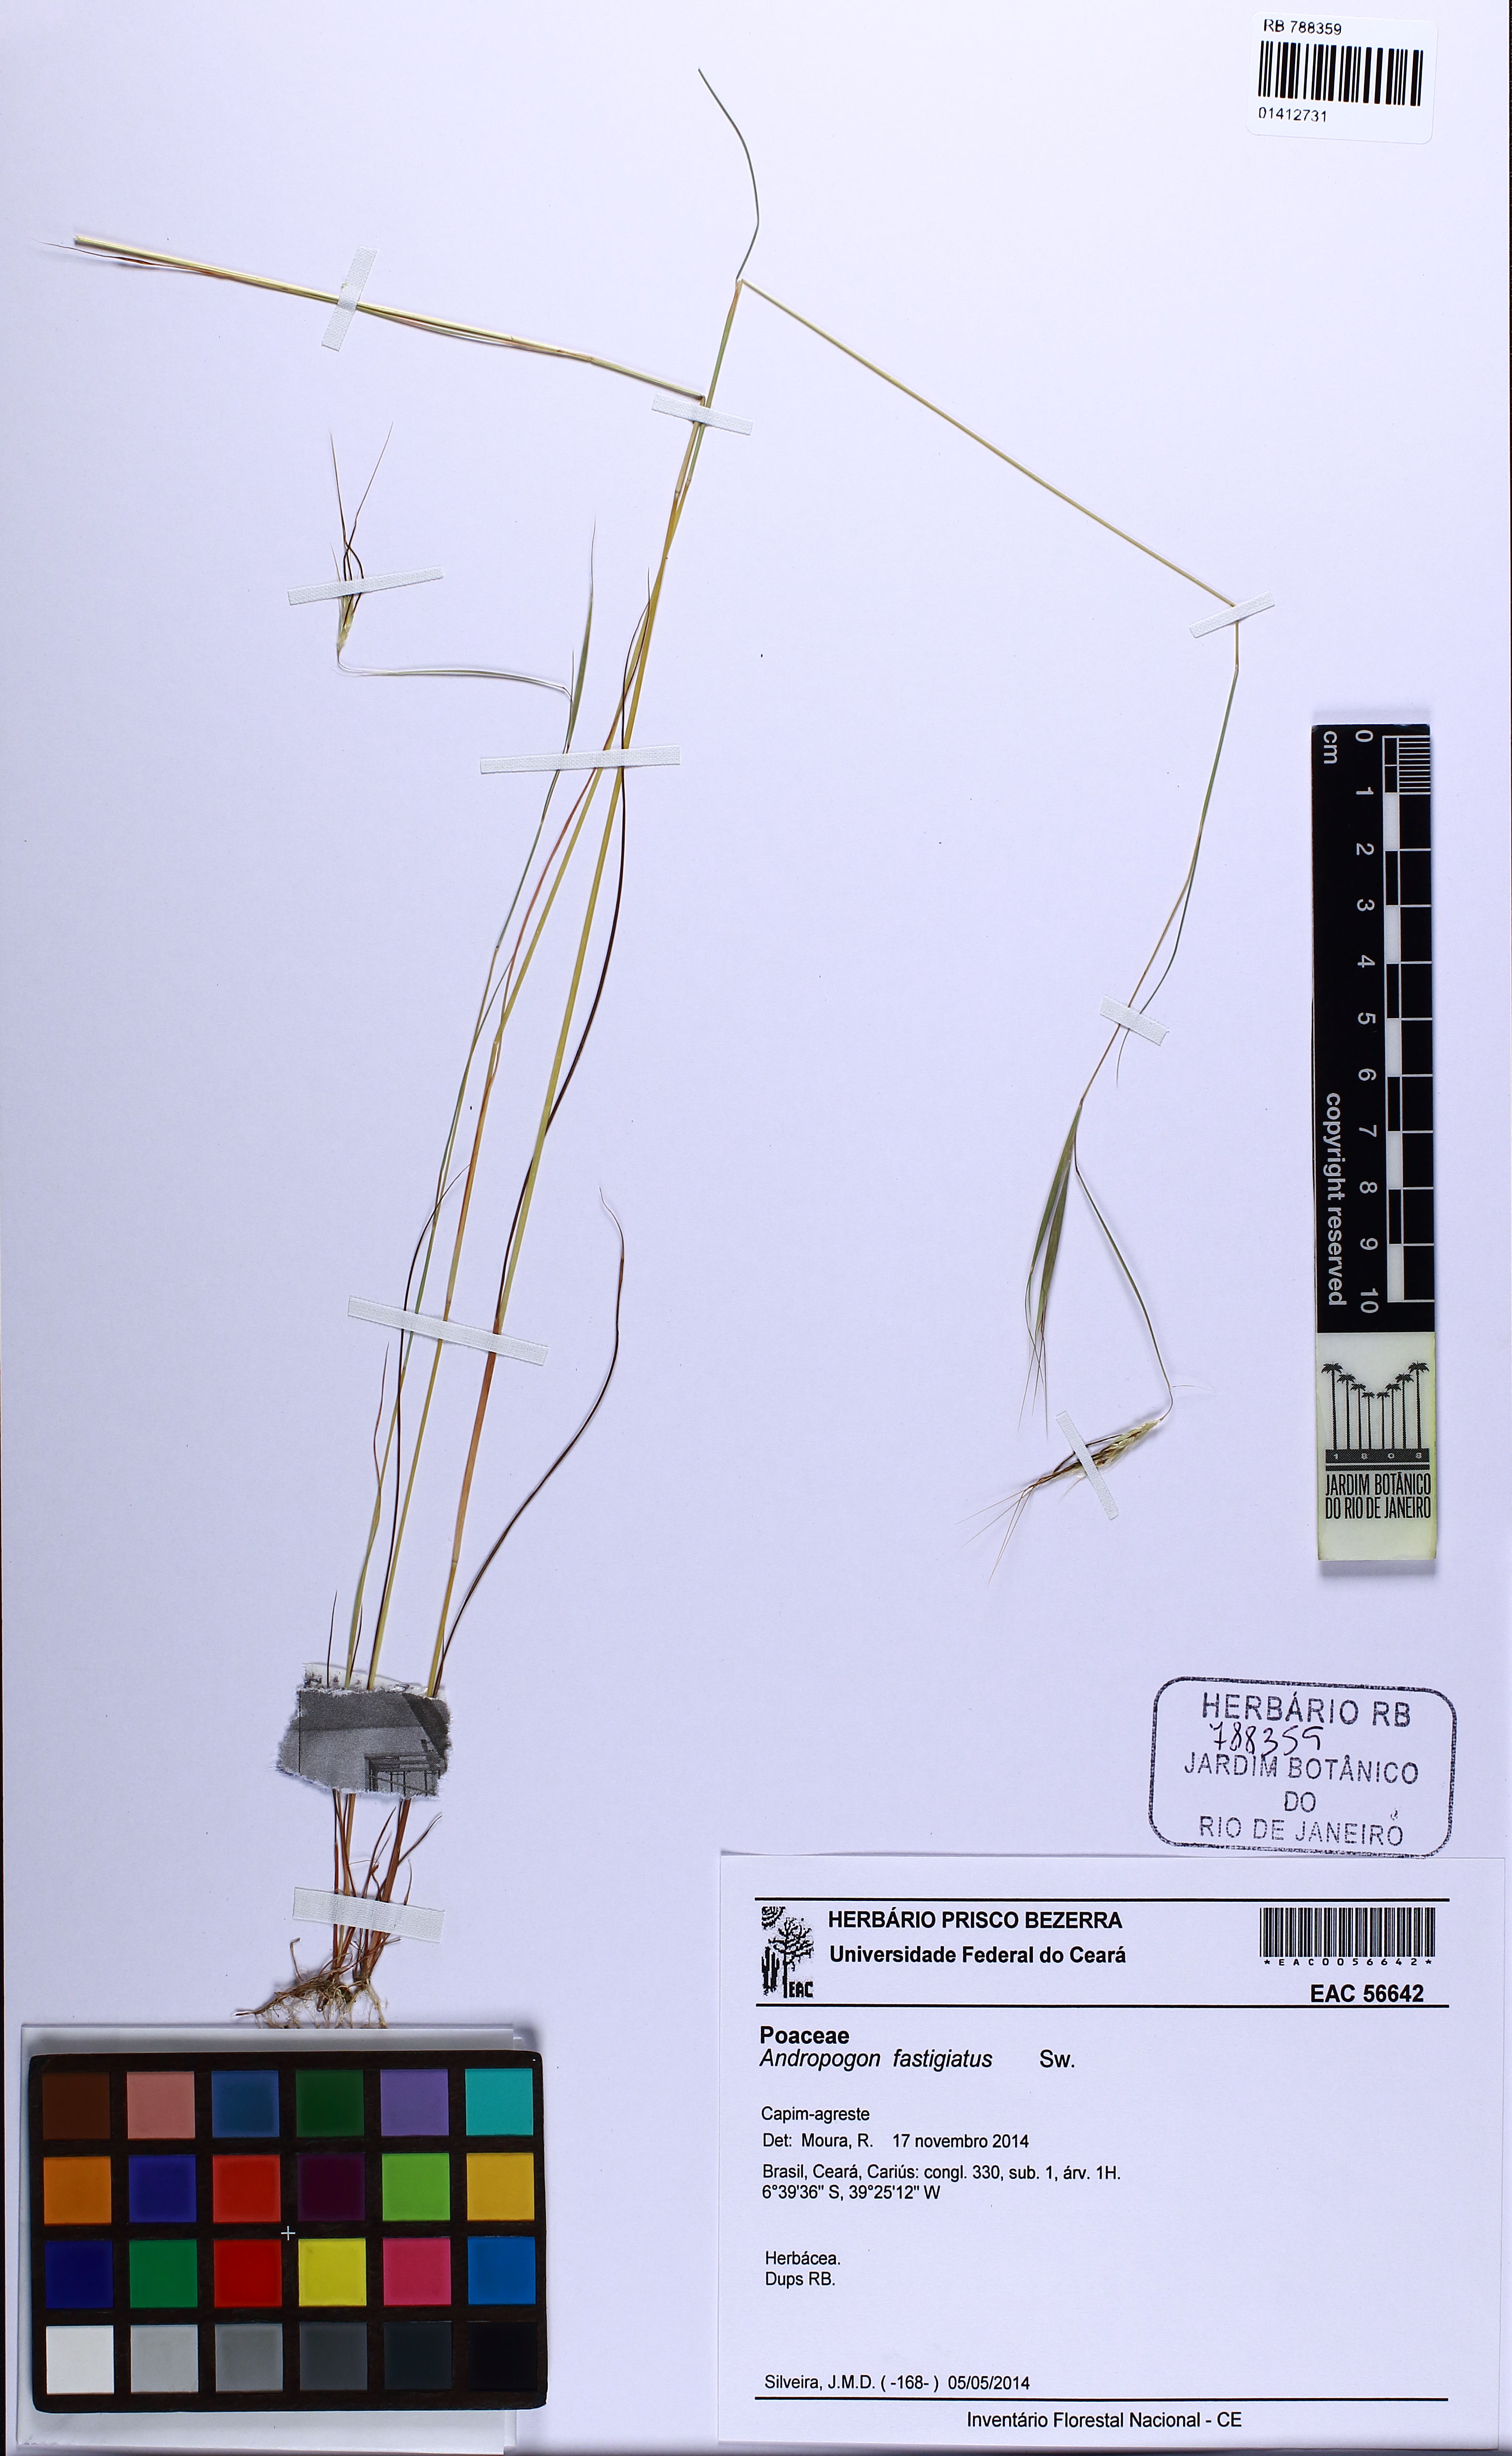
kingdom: Plantae
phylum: Tracheophyta
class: Liliopsida
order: Poales
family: Poaceae
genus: Diectomis
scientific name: Diectomis fastigiata
